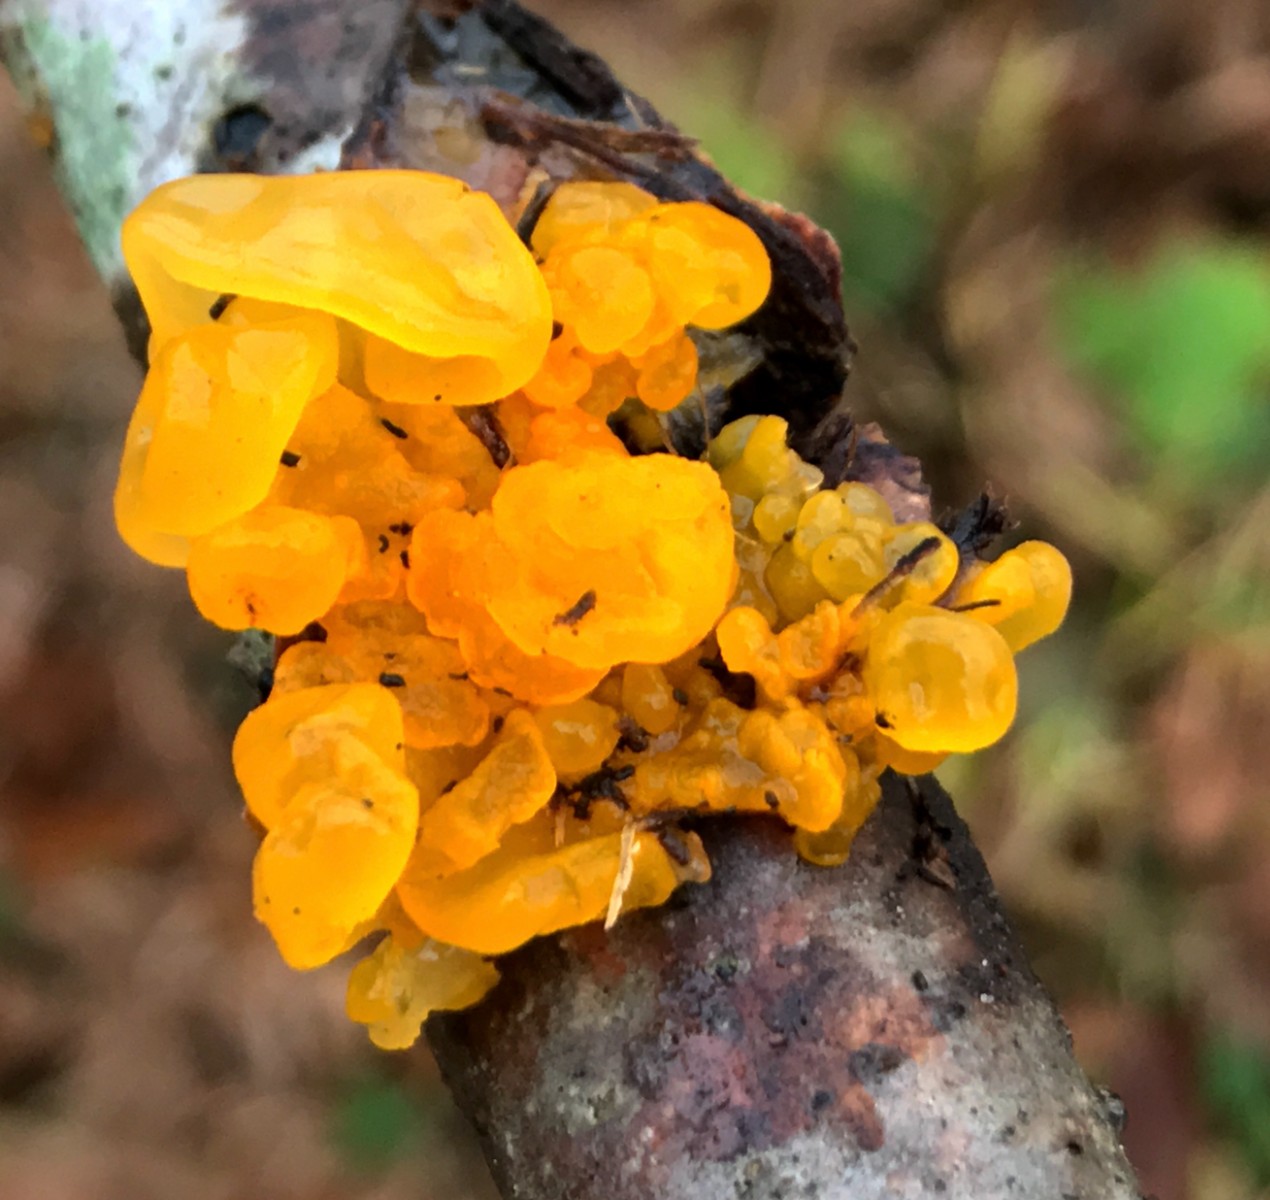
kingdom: Fungi
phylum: Basidiomycota
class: Tremellomycetes
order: Tremellales
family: Tremellaceae
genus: Tremella
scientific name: Tremella mesenterica
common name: gul bævresvamp
